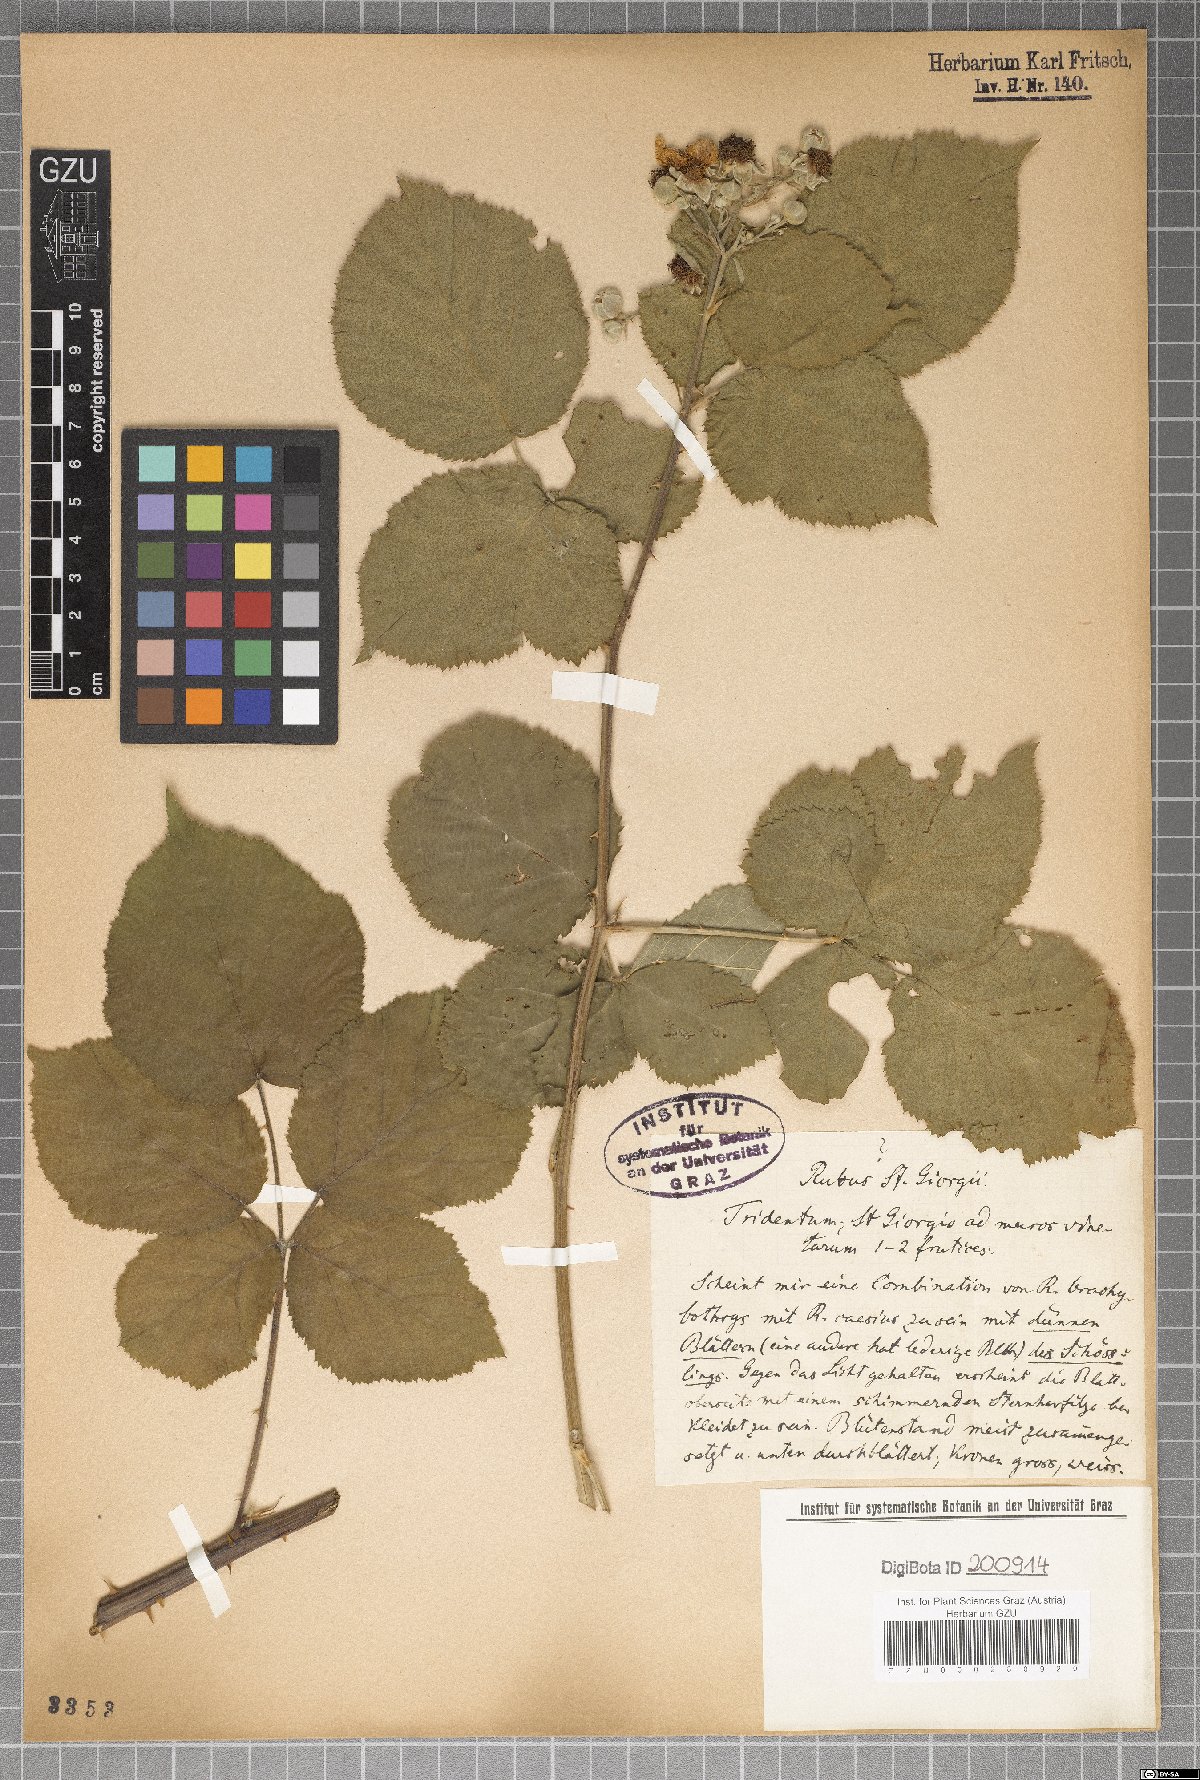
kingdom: Plantae
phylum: Tracheophyta
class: Magnoliopsida
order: Rosales
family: Rosaceae
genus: Rubus
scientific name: Rubus
